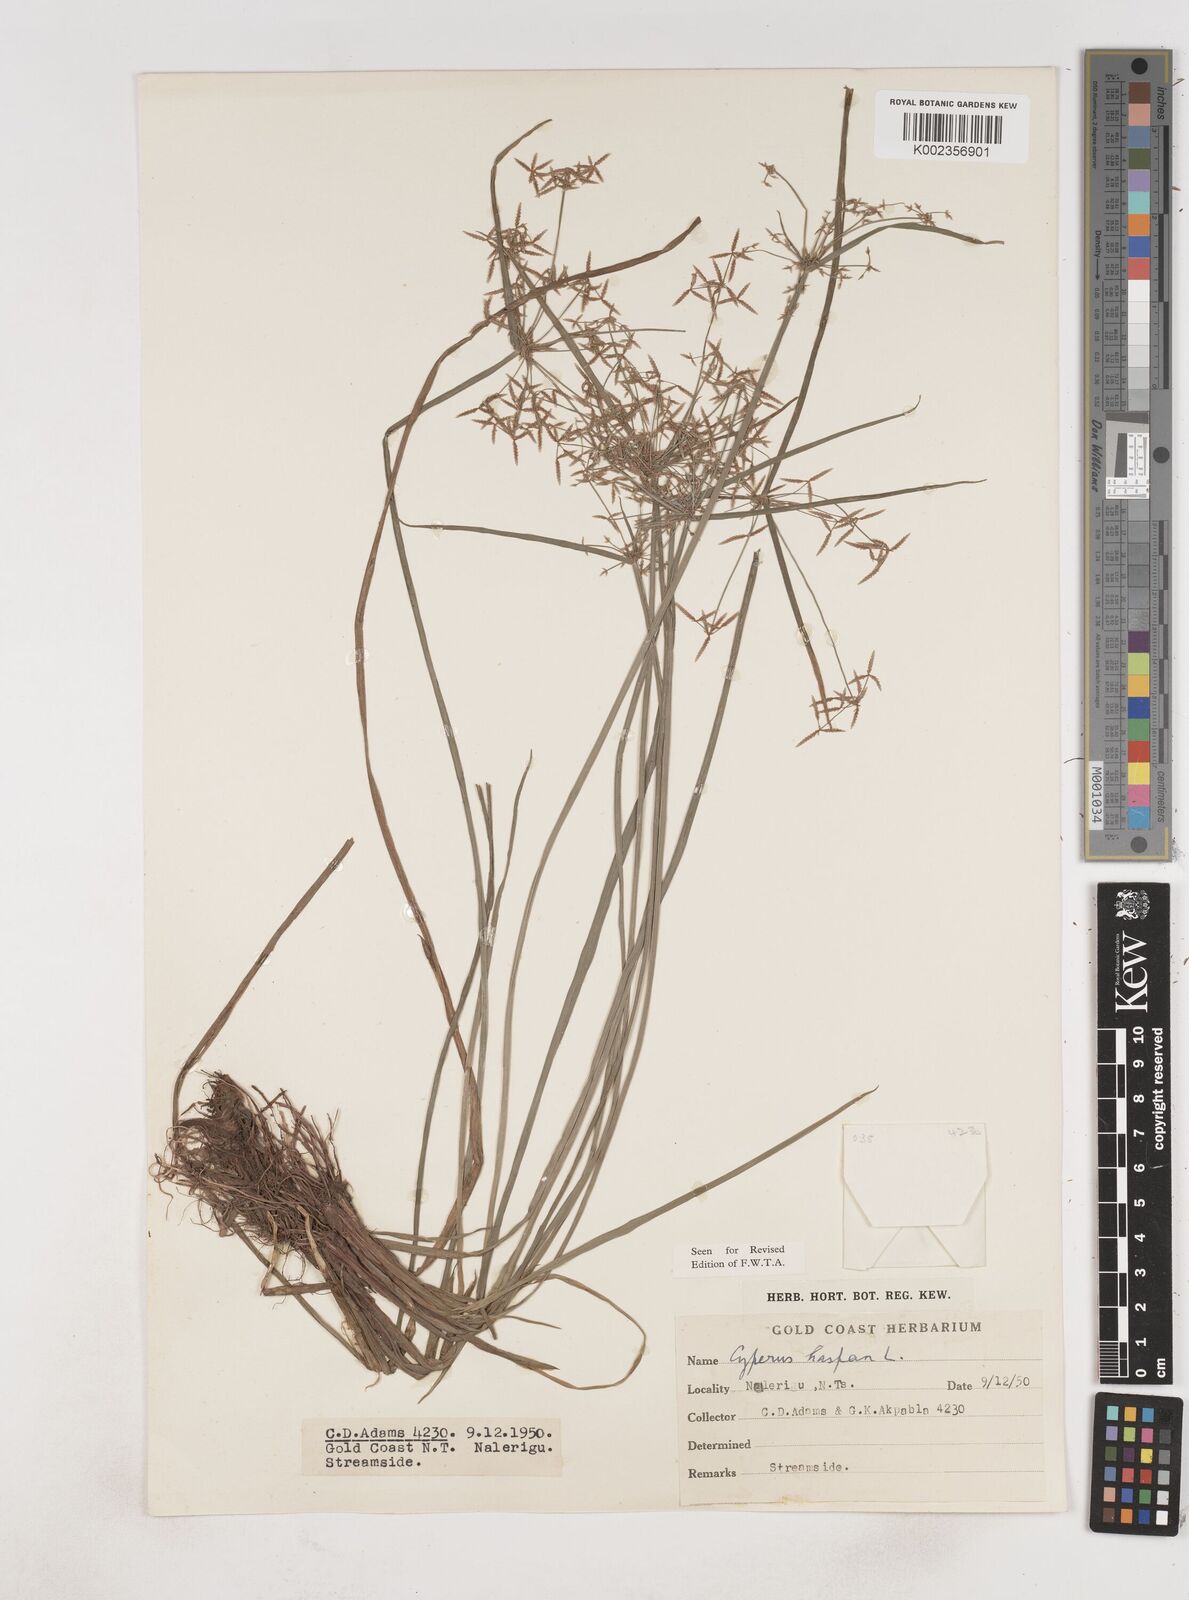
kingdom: Plantae
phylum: Tracheophyta
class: Liliopsida
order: Poales
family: Cyperaceae
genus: Cyperus
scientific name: Cyperus haspan
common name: Haspan flatsedge
